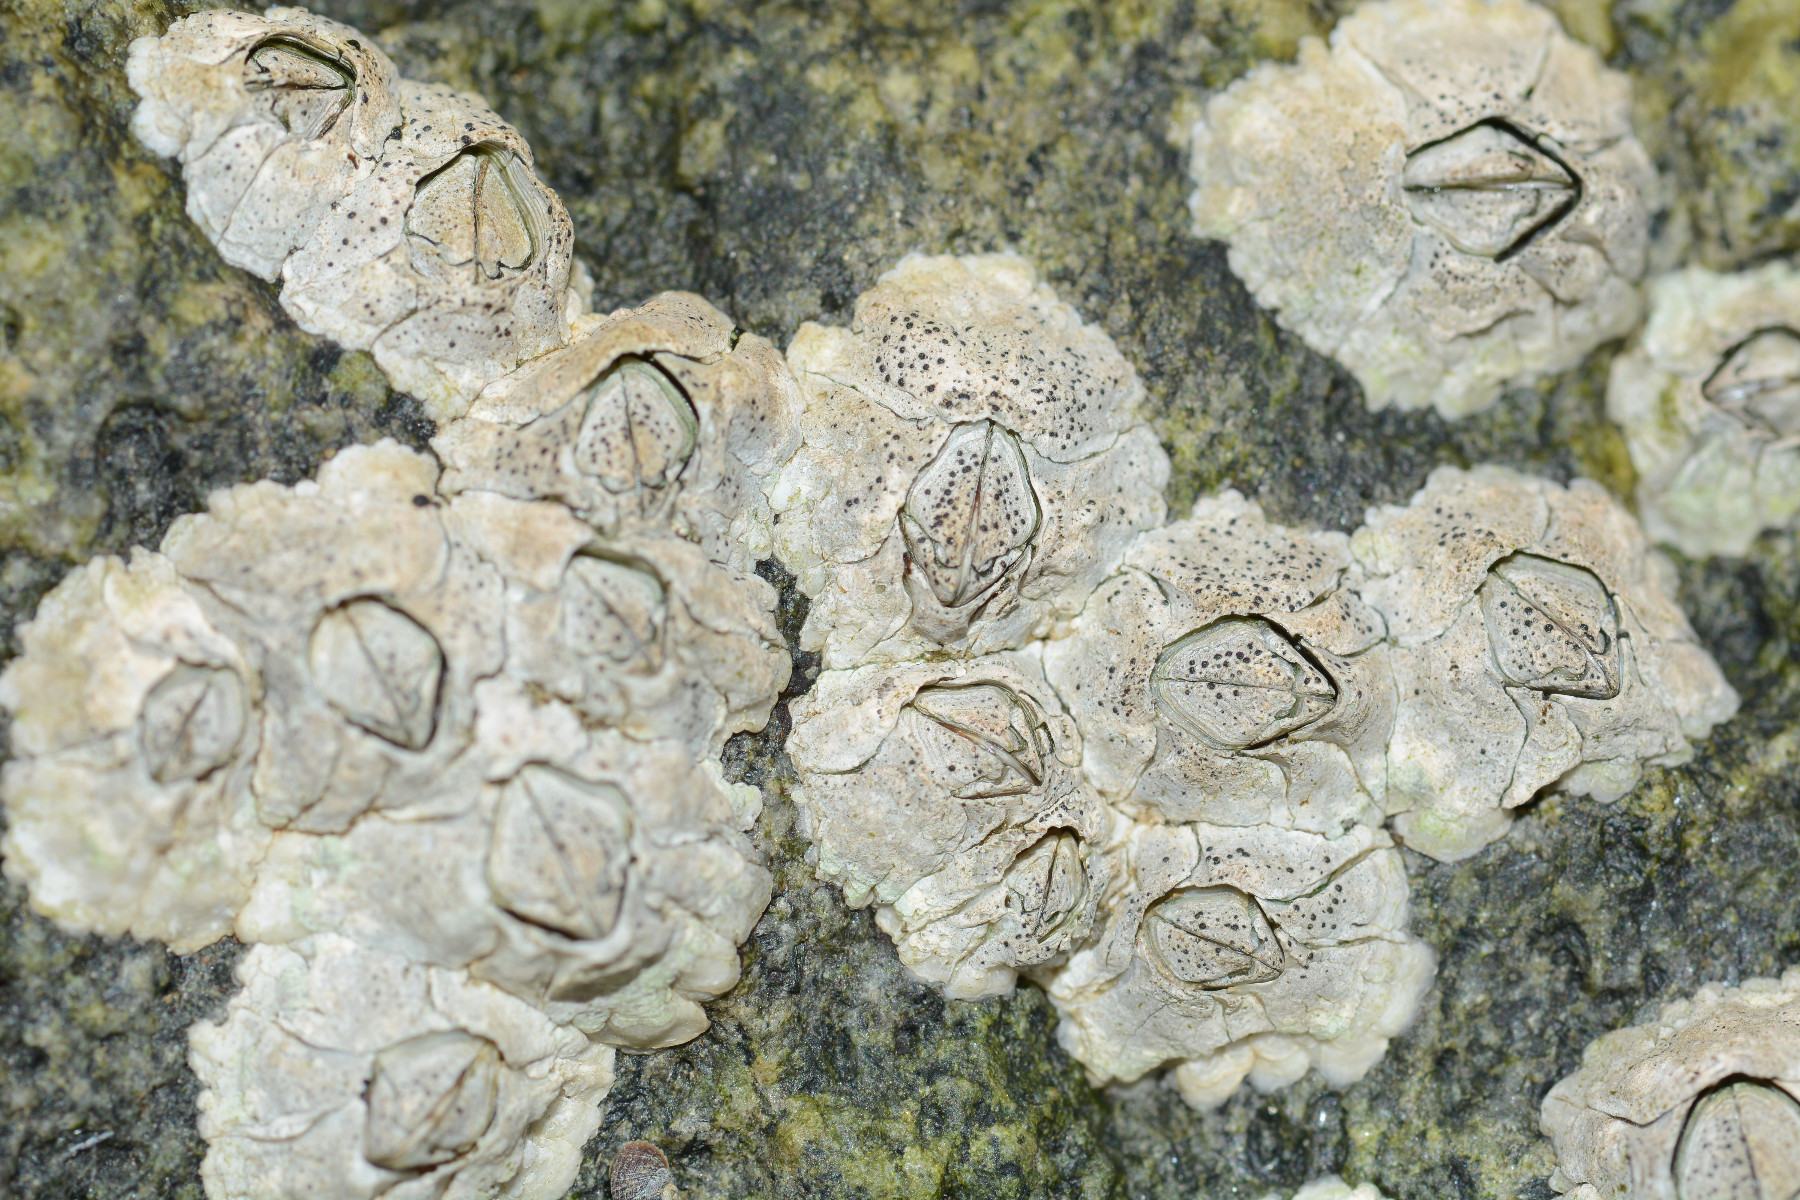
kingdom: Fungi
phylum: Ascomycota
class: Dothideomycetes
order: Collemopsidiales
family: Xanthopyreniaceae
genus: Collemopsidium
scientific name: Collemopsidium foveolatum
